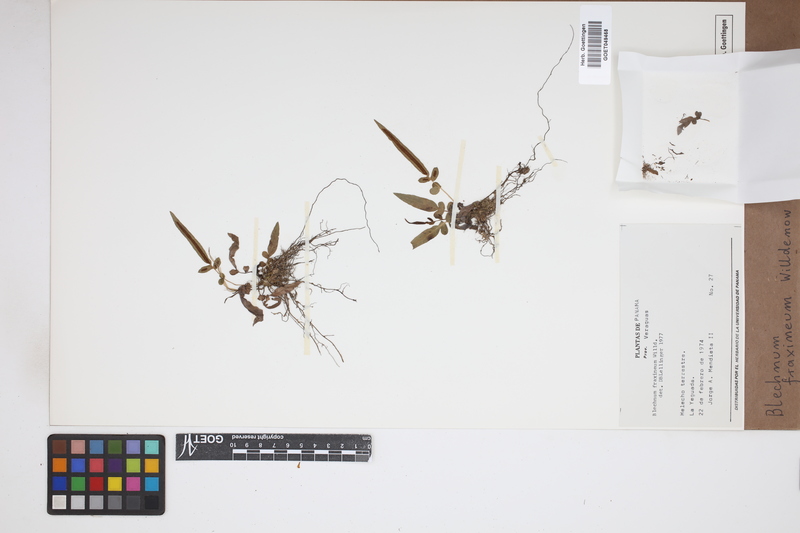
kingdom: Plantae
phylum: Tracheophyta
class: Polypodiopsida
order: Polypodiales
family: Blechnaceae
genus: Blechnum
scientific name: Blechnum gracile
